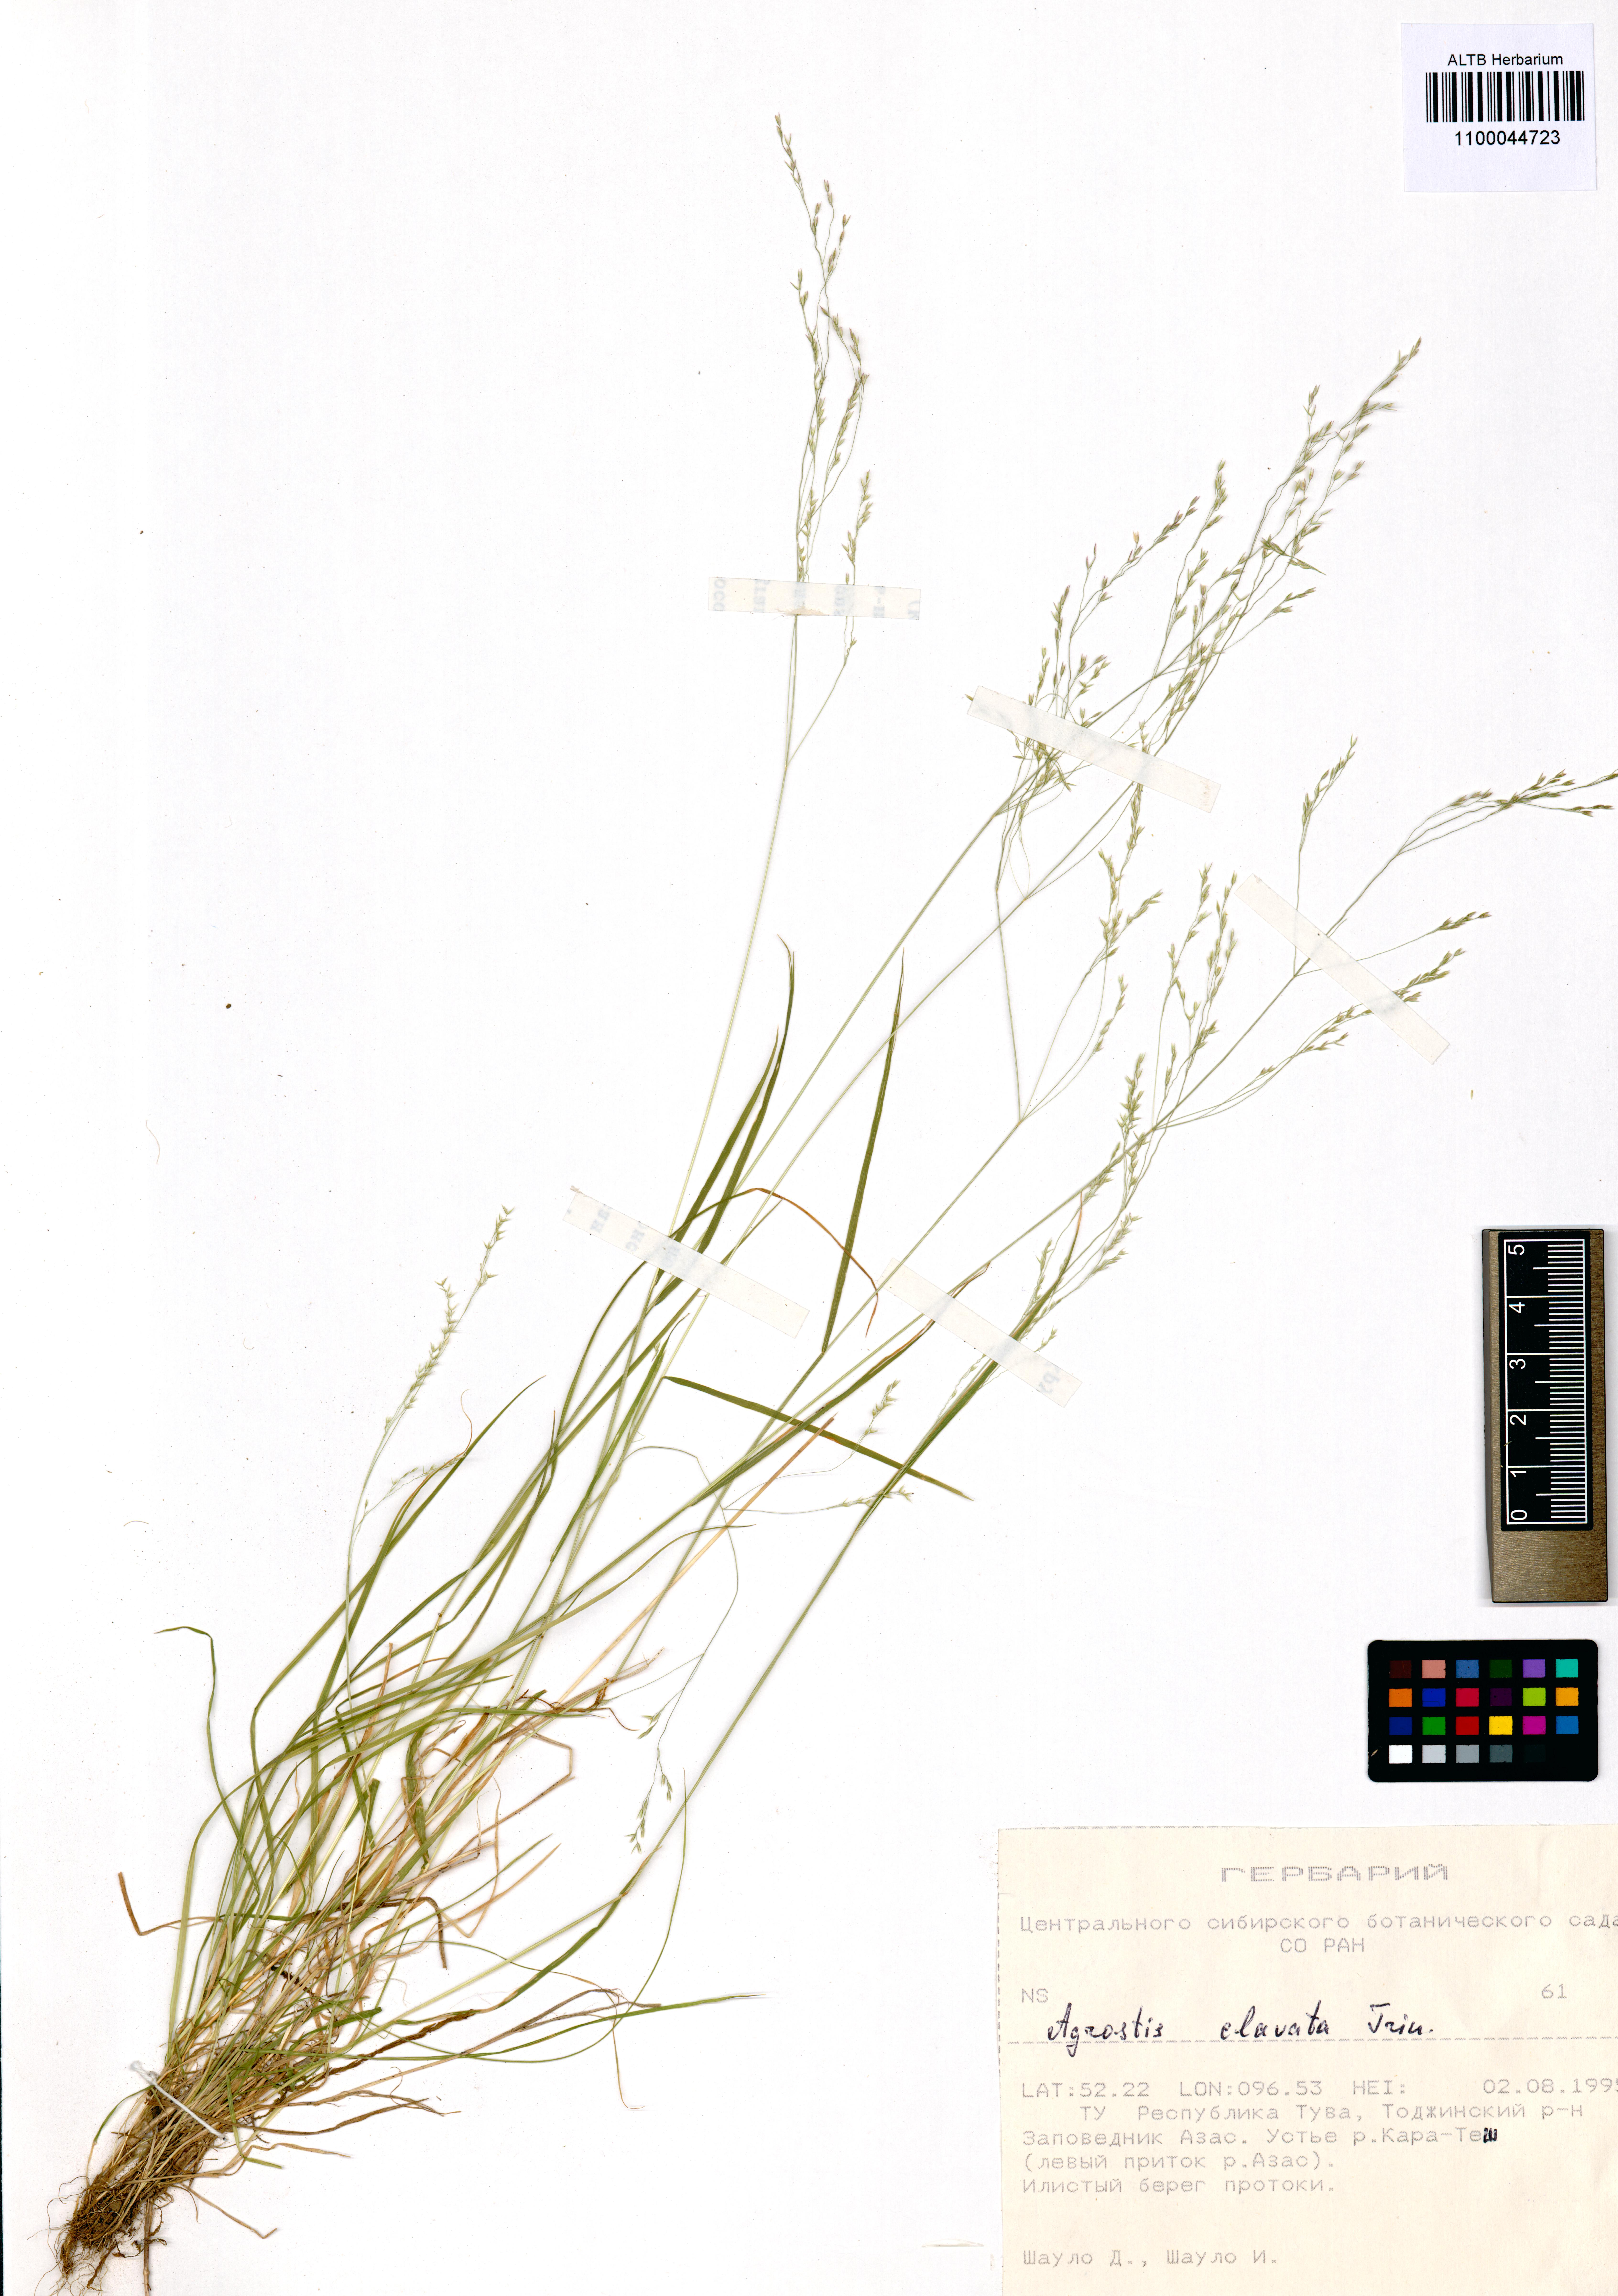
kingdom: Plantae
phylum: Tracheophyta
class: Liliopsida
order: Poales
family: Poaceae
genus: Agrostis
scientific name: Agrostis clavata
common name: Clavate bent
